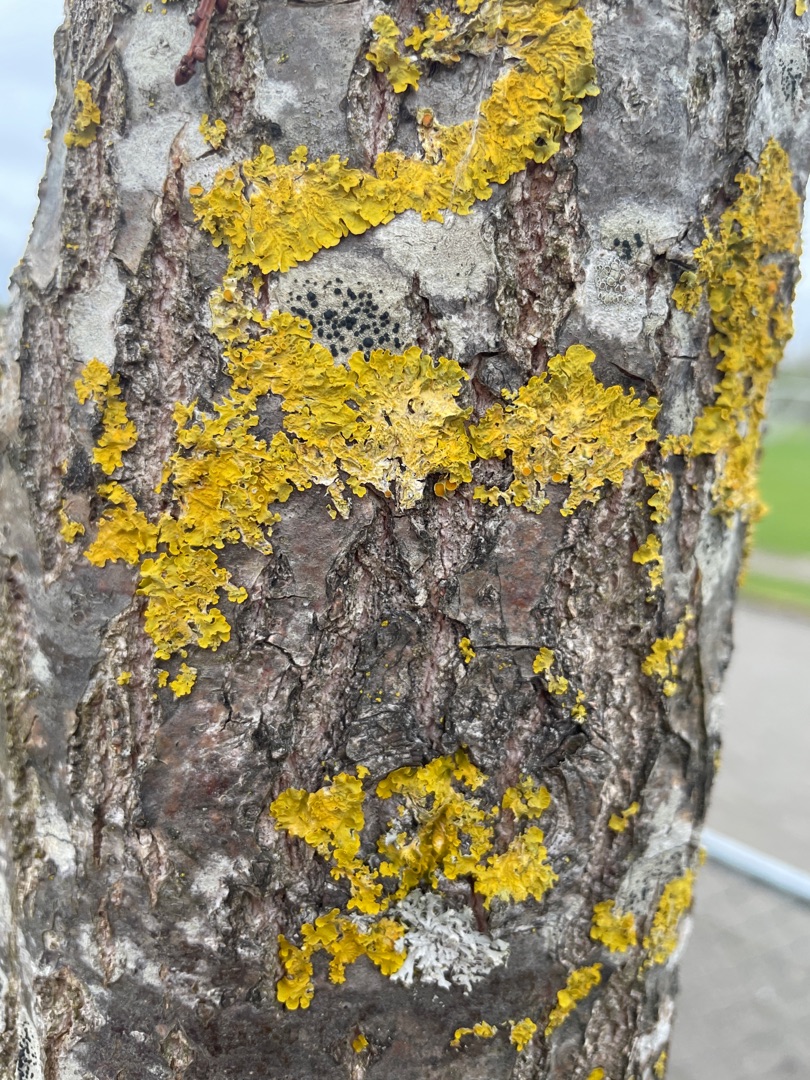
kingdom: Fungi
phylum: Ascomycota
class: Lecanoromycetes
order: Teloschistales
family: Teloschistaceae
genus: Xanthoria
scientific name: Xanthoria parietina
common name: Almindelig væggelav
